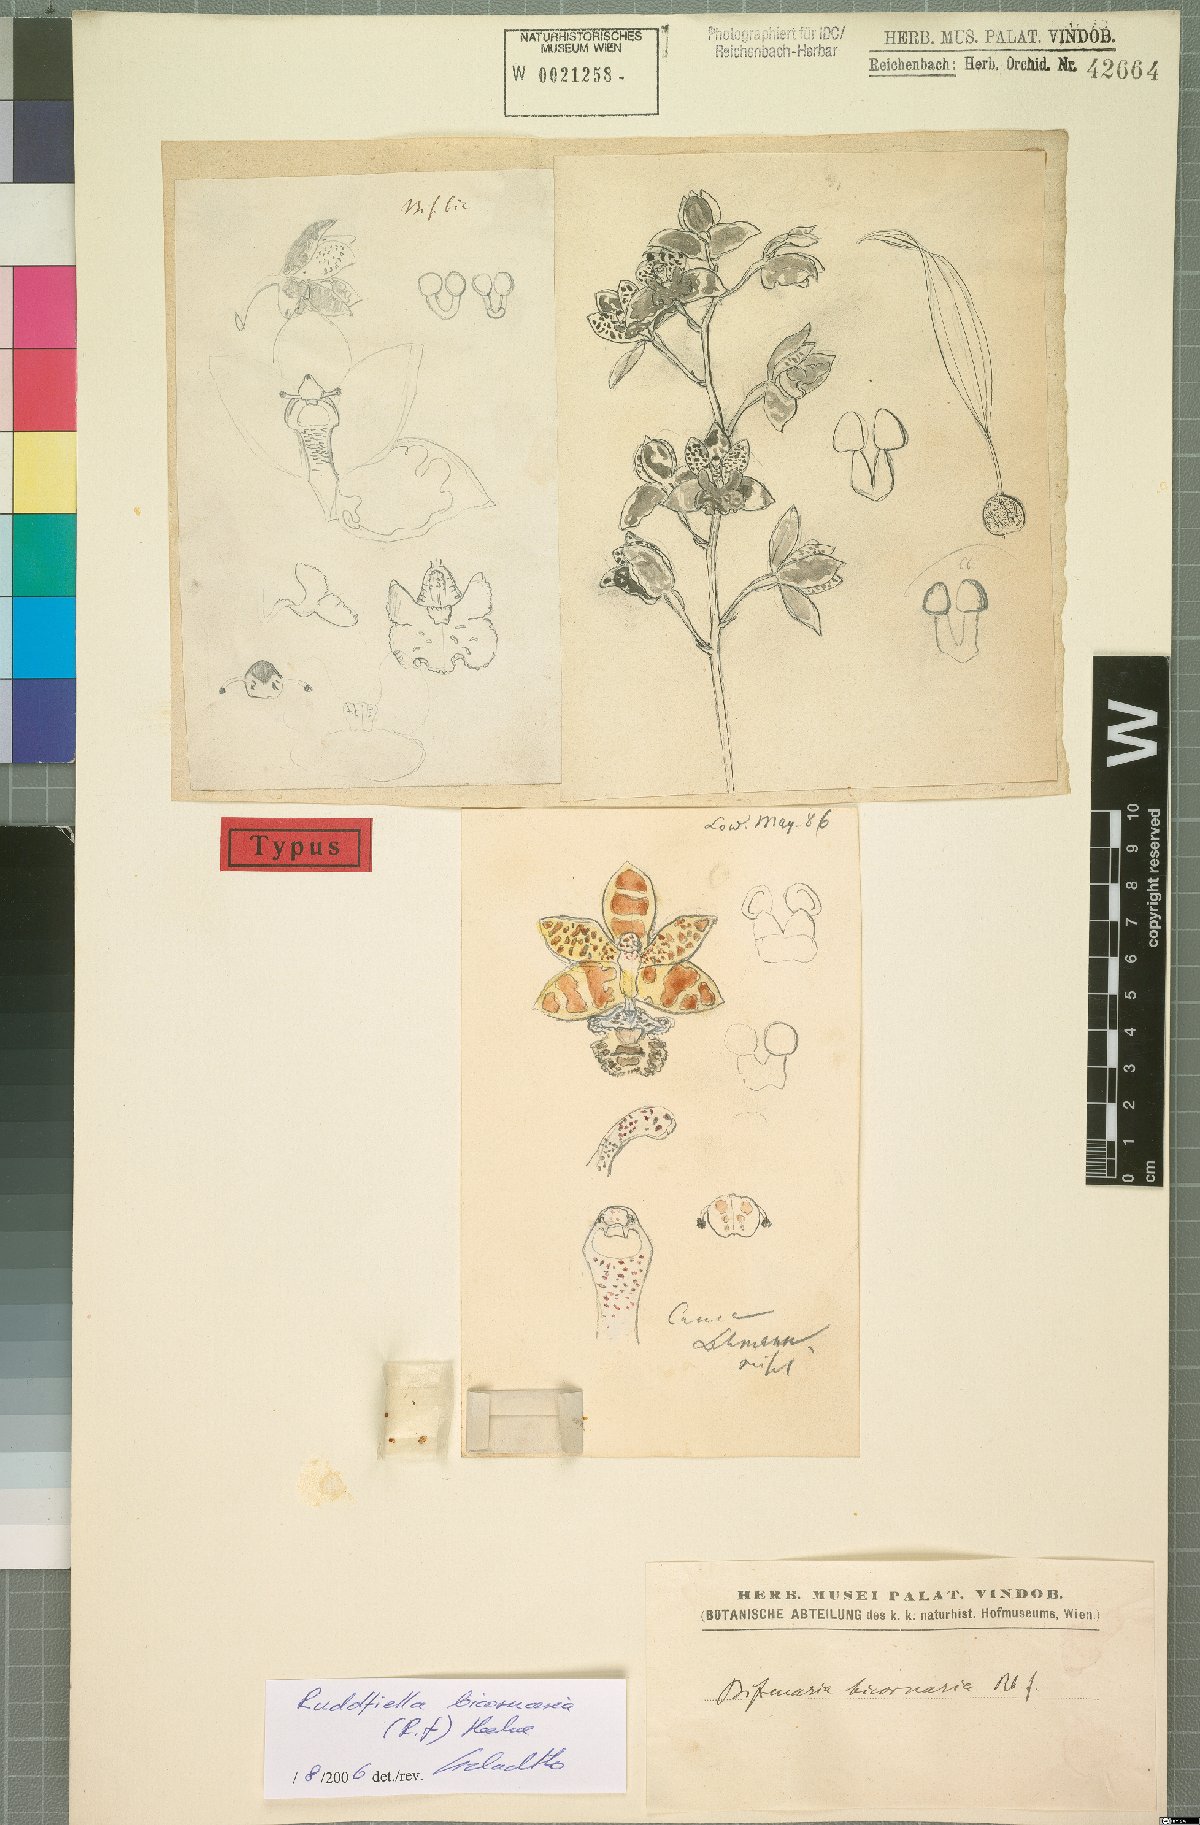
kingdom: Plantae
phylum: Tracheophyta
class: Liliopsida
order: Asparagales
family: Orchidaceae
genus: Rudolfiella
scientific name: Rudolfiella bicornaria
